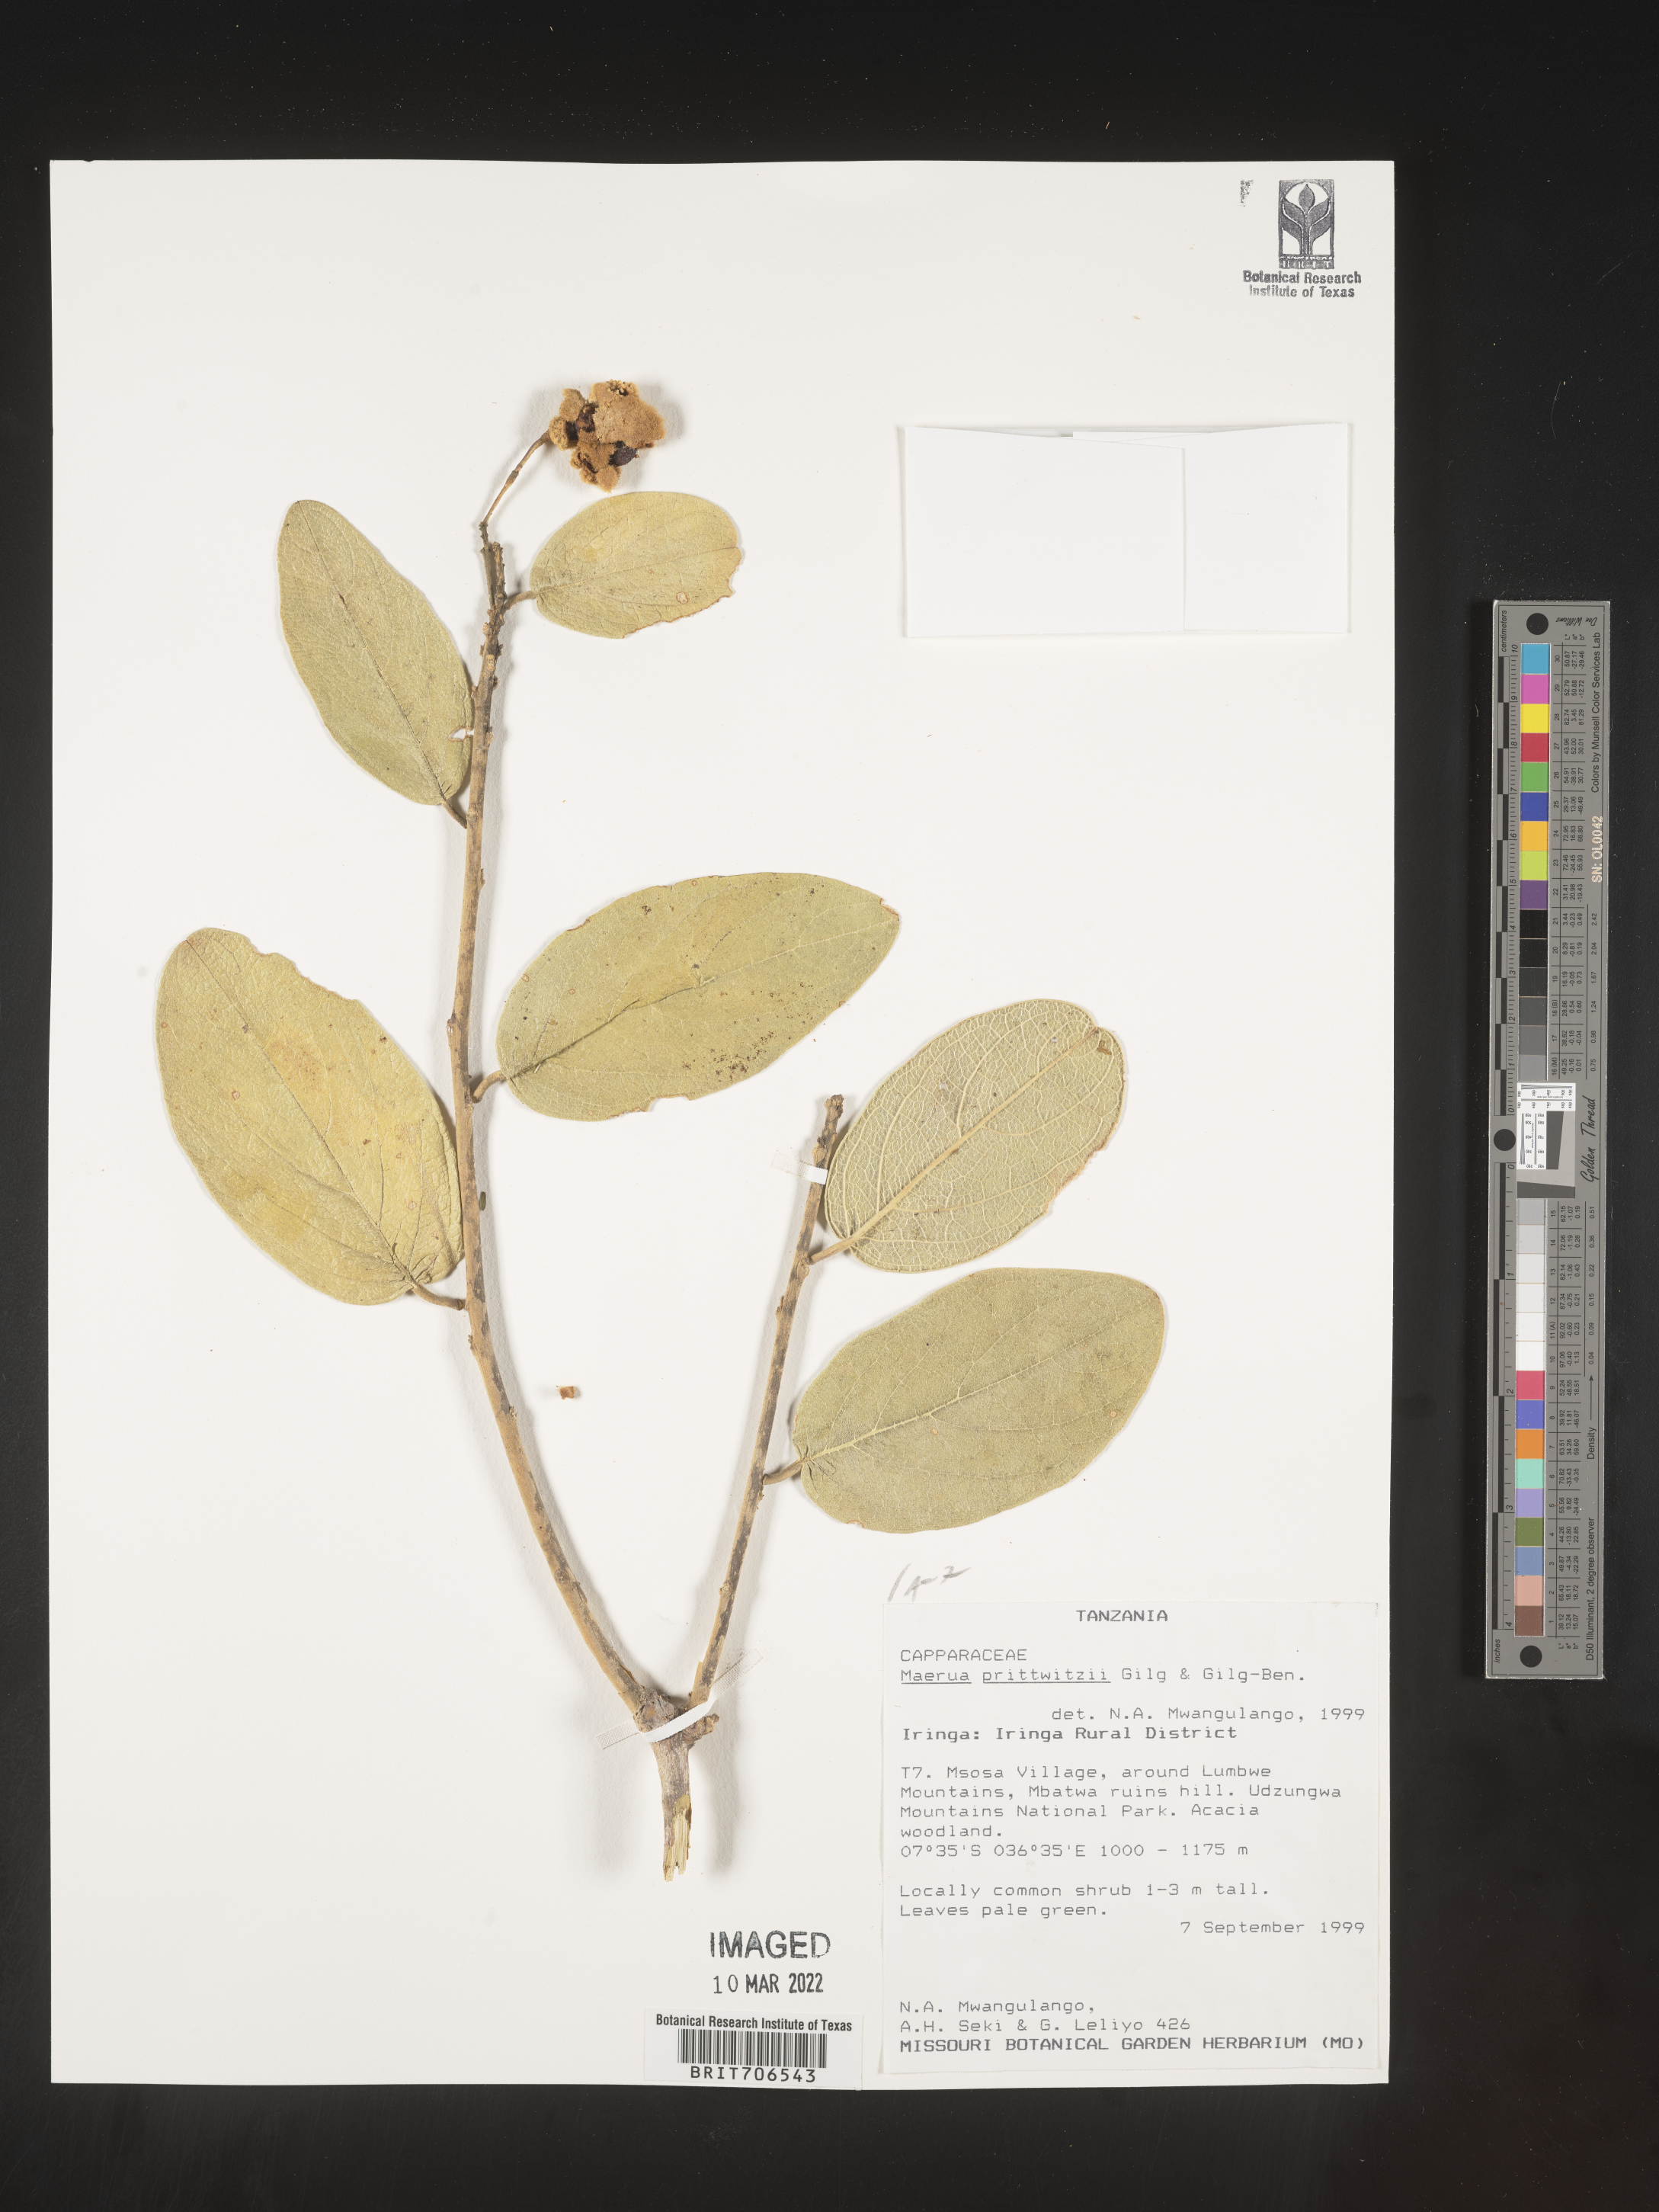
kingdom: Plantae
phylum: Tracheophyta
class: Magnoliopsida
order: Brassicales
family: Capparaceae
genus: Maerua
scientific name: Maerua
